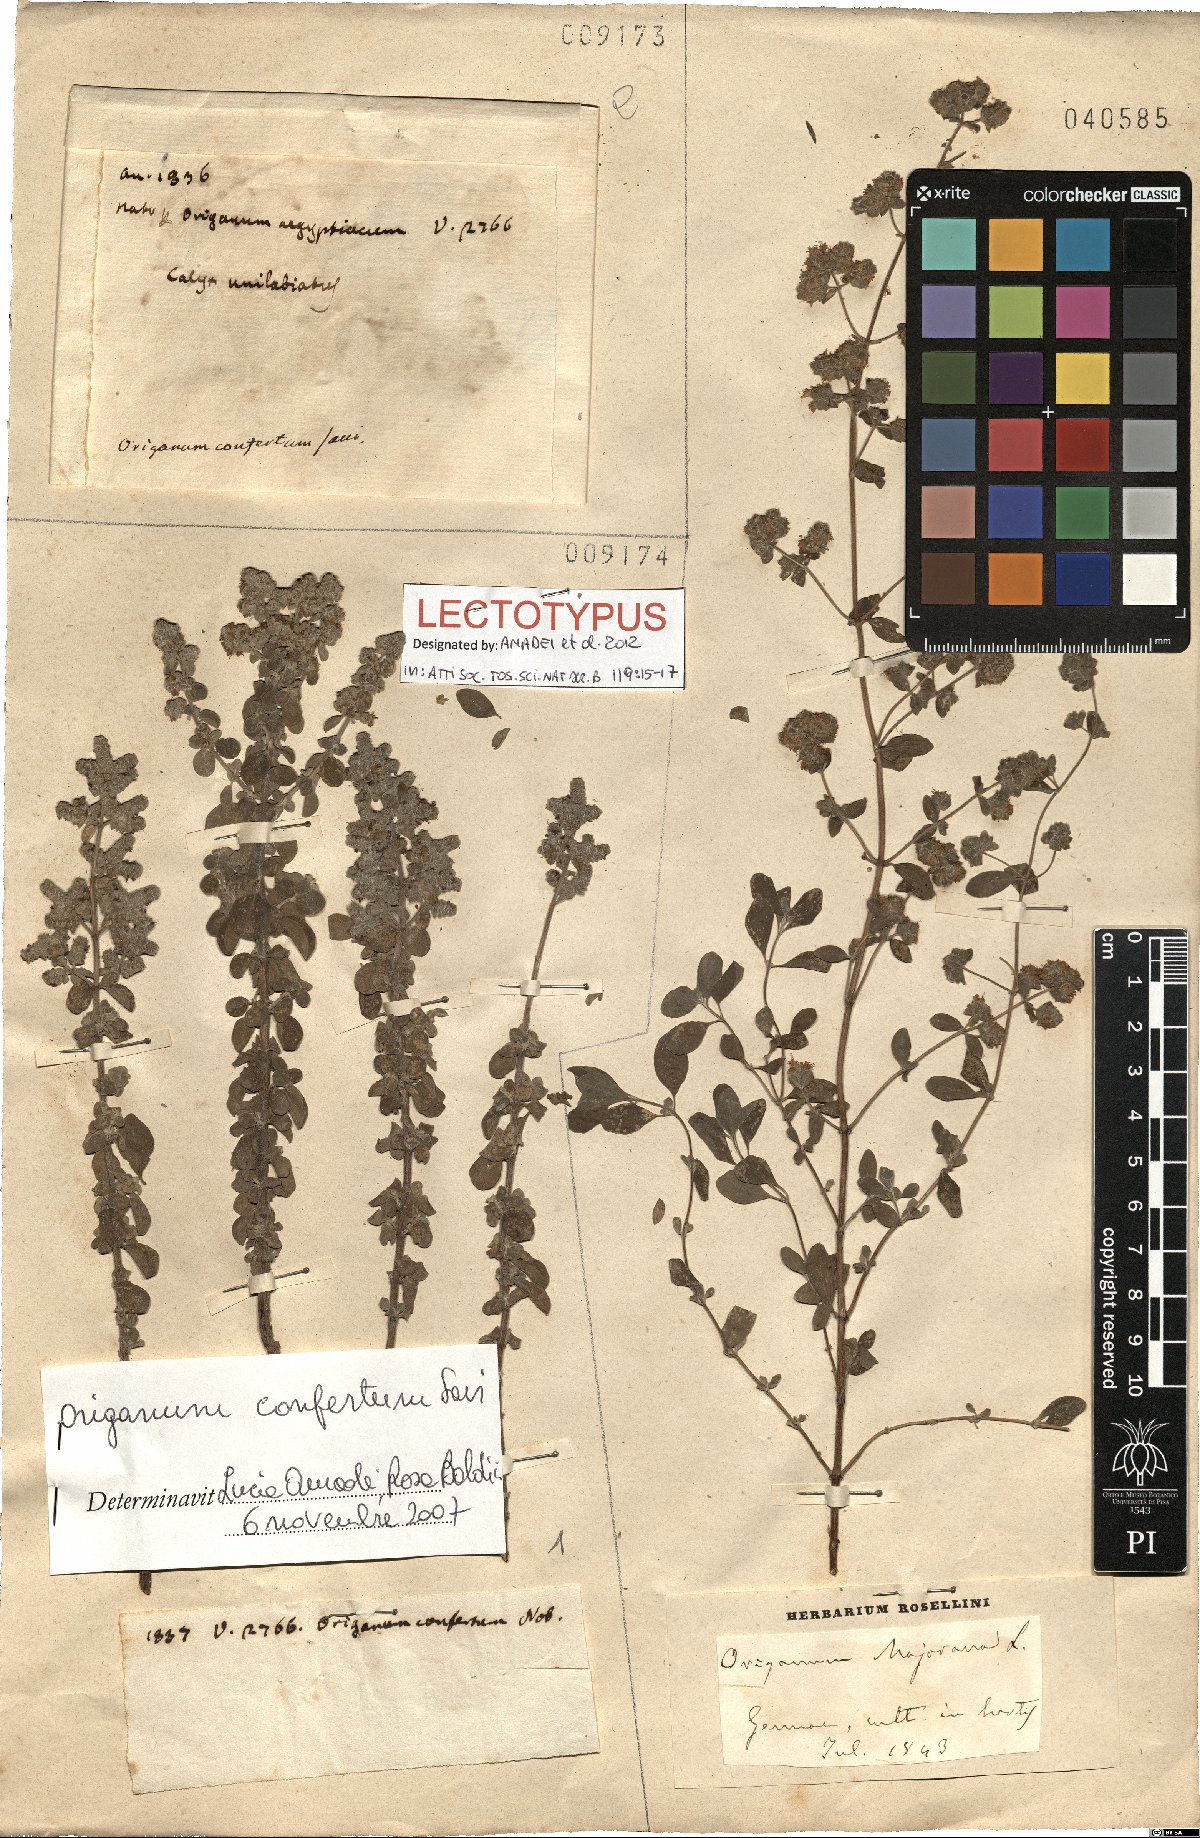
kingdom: Plantae
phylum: Tracheophyta
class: Magnoliopsida
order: Lamiales
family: Lamiaceae
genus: Origanum
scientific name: Origanum majorana
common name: Sweet marjoram
